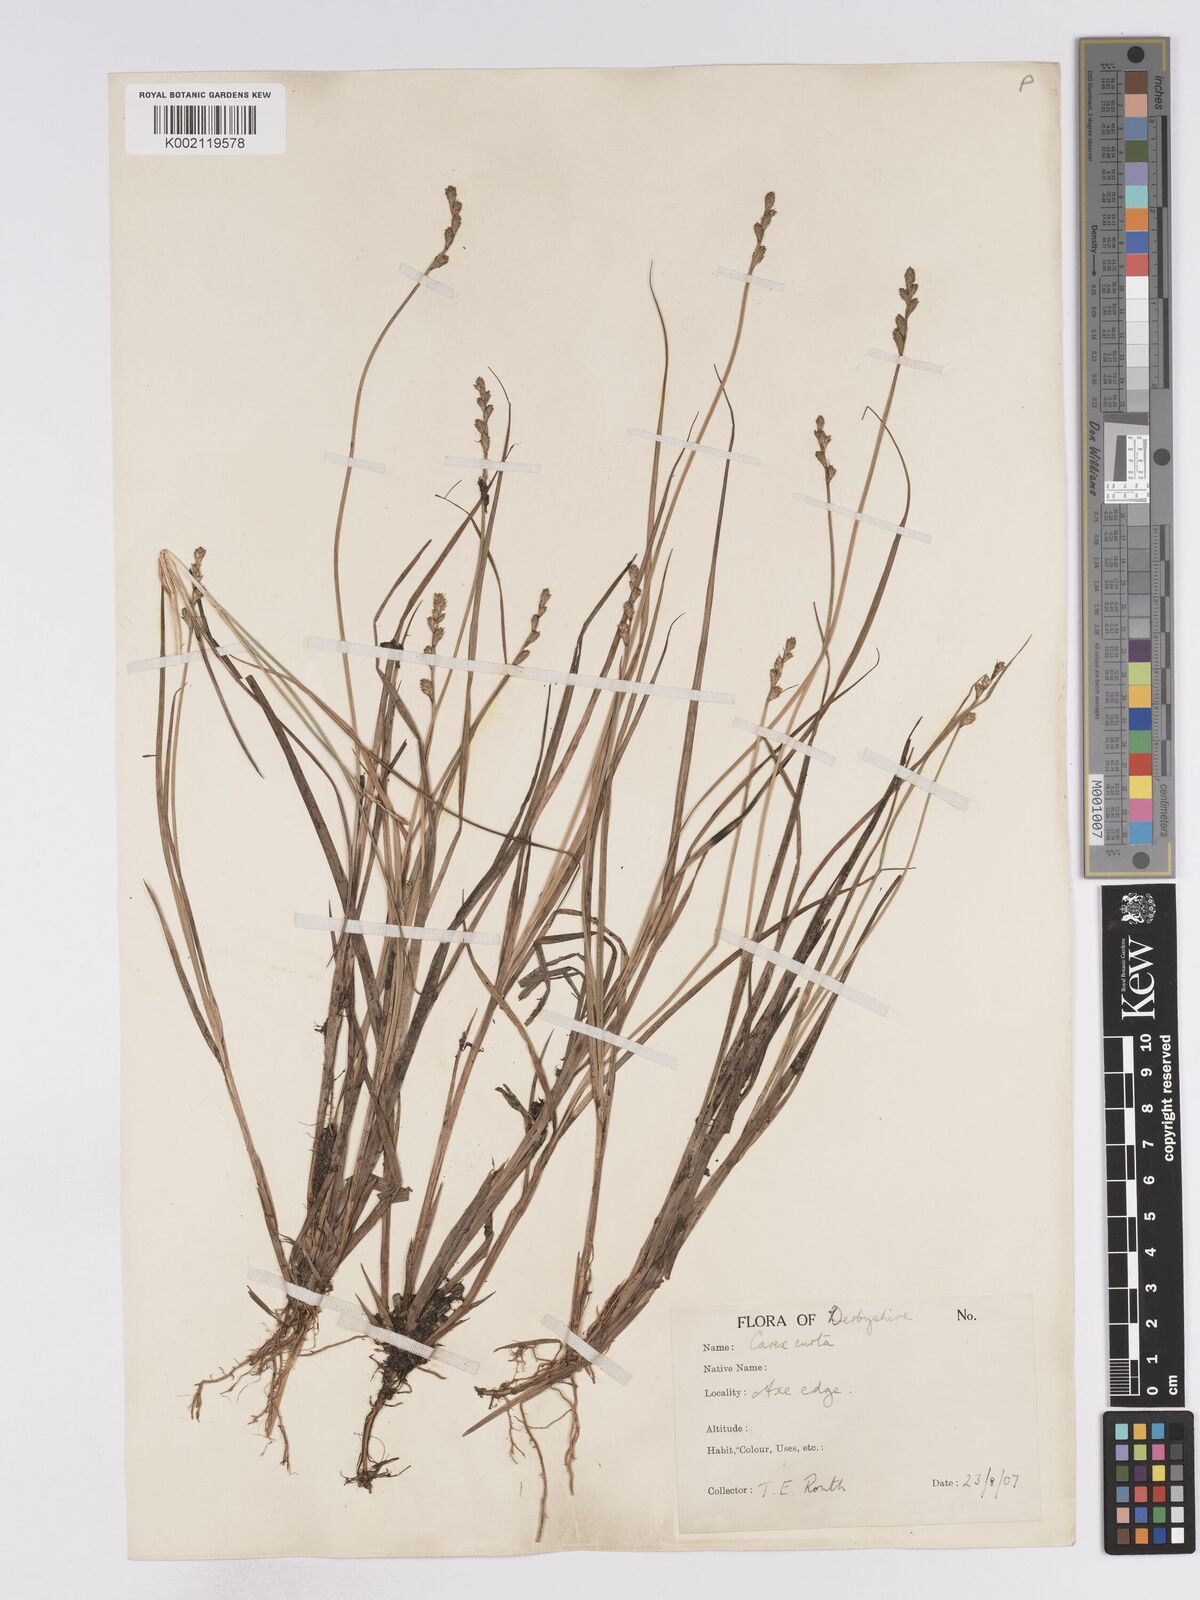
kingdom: Plantae
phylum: Tracheophyta
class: Liliopsida
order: Poales
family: Cyperaceae
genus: Carex
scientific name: Carex curta
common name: White sedge
